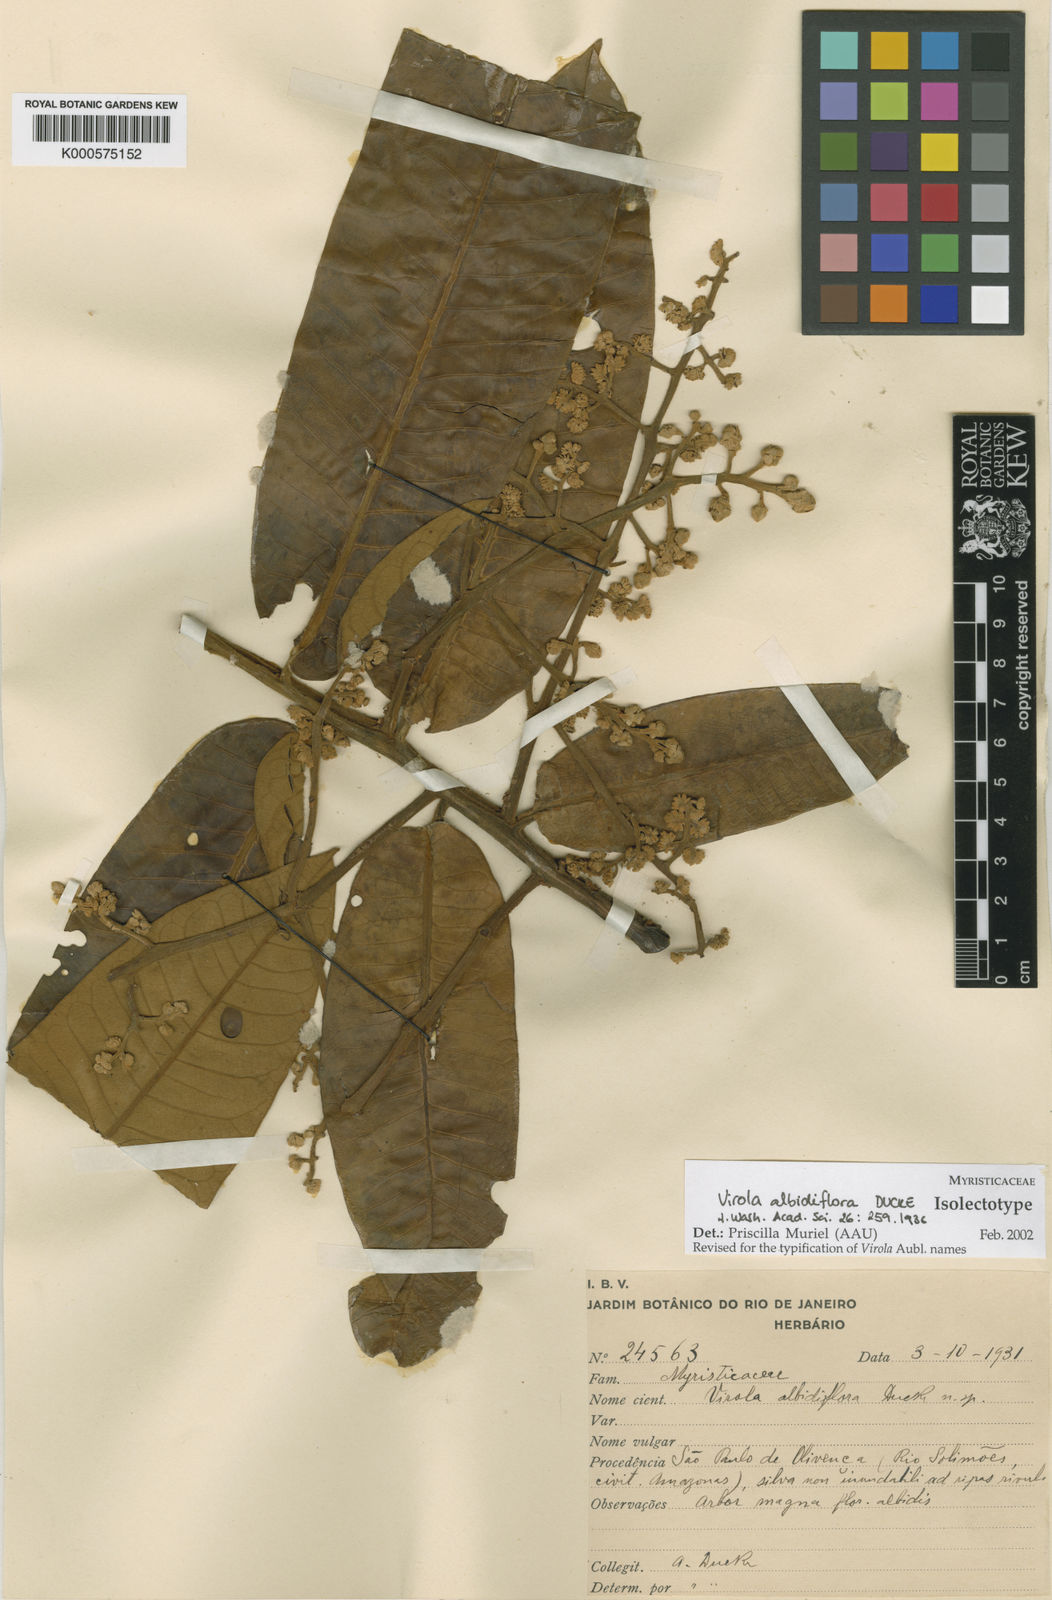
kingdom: Plantae
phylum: Tracheophyta
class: Magnoliopsida
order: Magnoliales
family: Myristicaceae
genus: Virola
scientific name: Virola albidiflora
